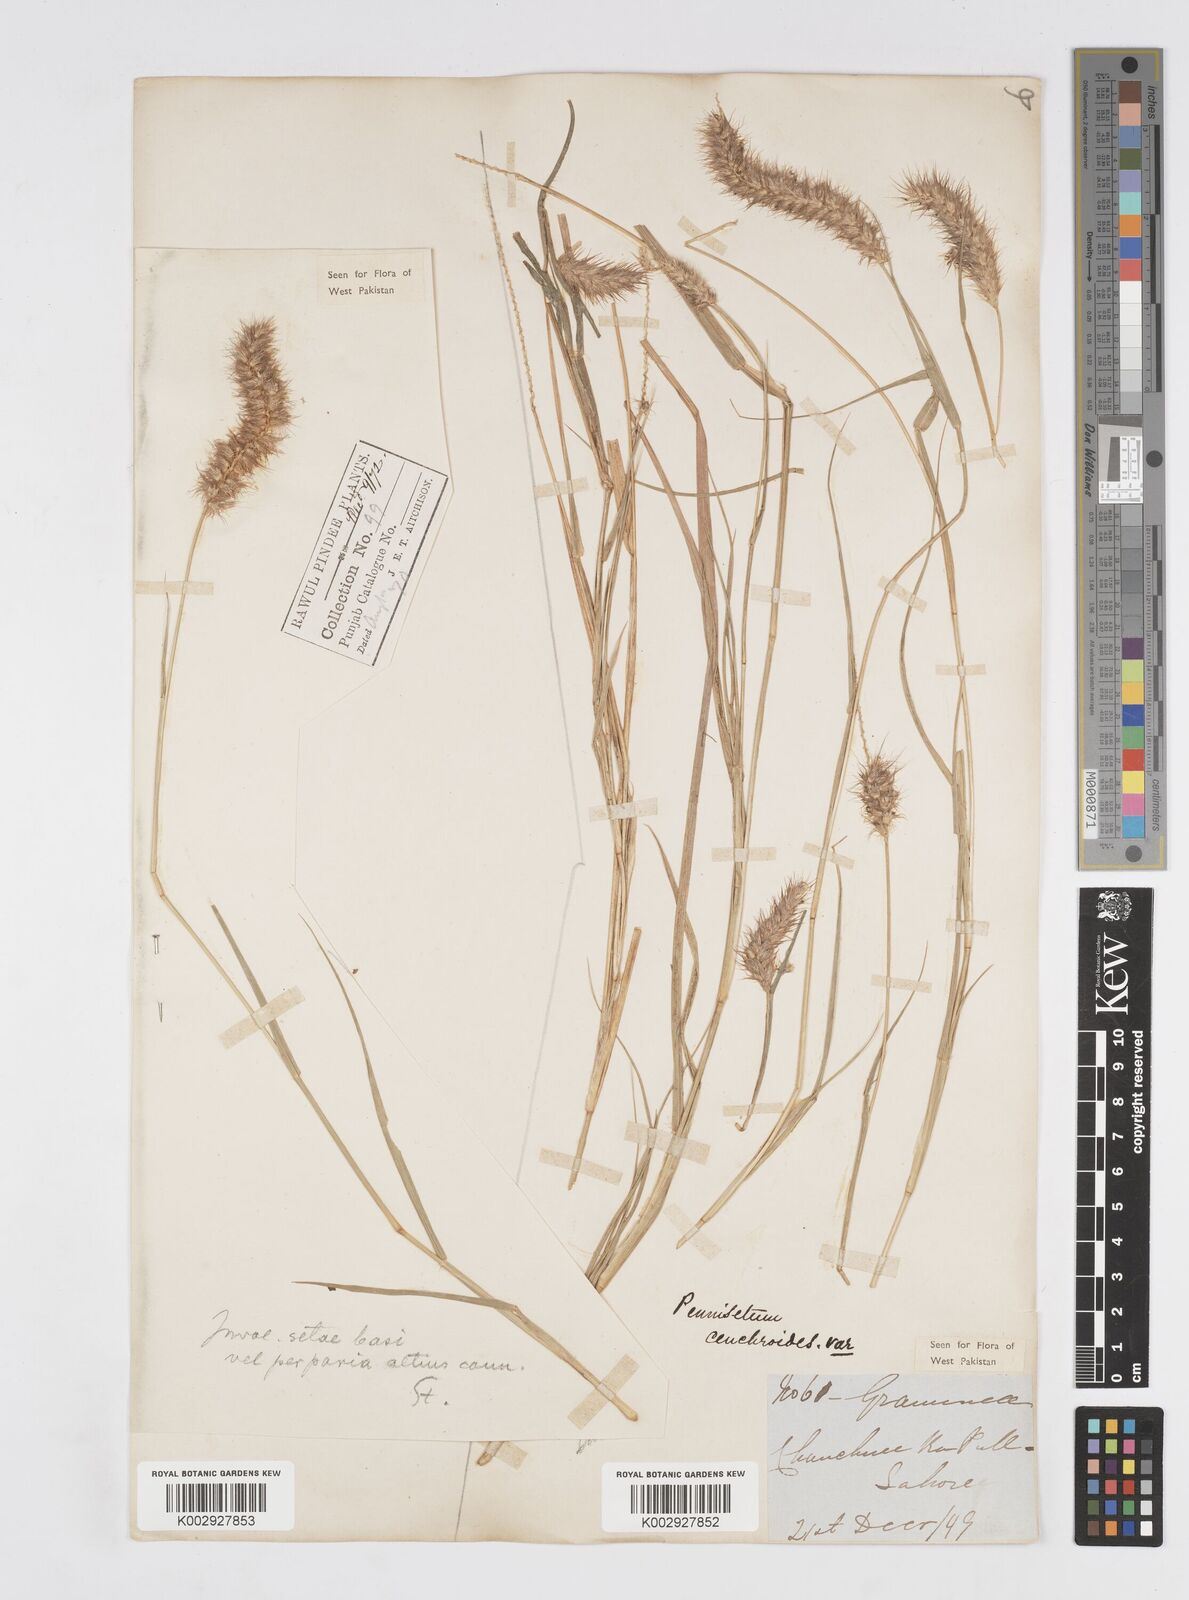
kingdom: Plantae
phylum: Tracheophyta
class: Liliopsida
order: Poales
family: Poaceae
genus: Cenchrus
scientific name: Cenchrus ciliaris
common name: Buffelgrass
